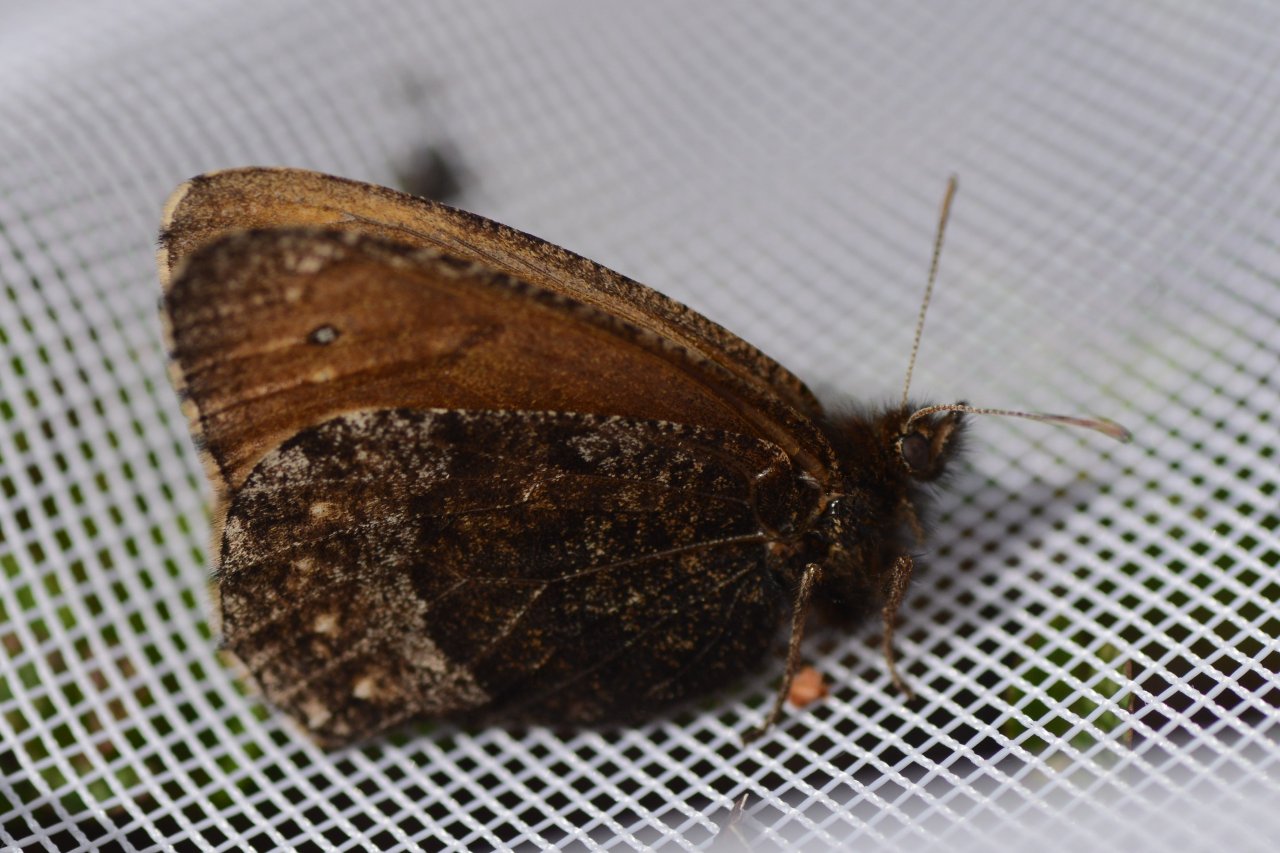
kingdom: Animalia
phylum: Arthropoda
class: Insecta
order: Lepidoptera
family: Nymphalidae
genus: Oeneis
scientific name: Oeneis bore
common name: Polixenes Arctic
